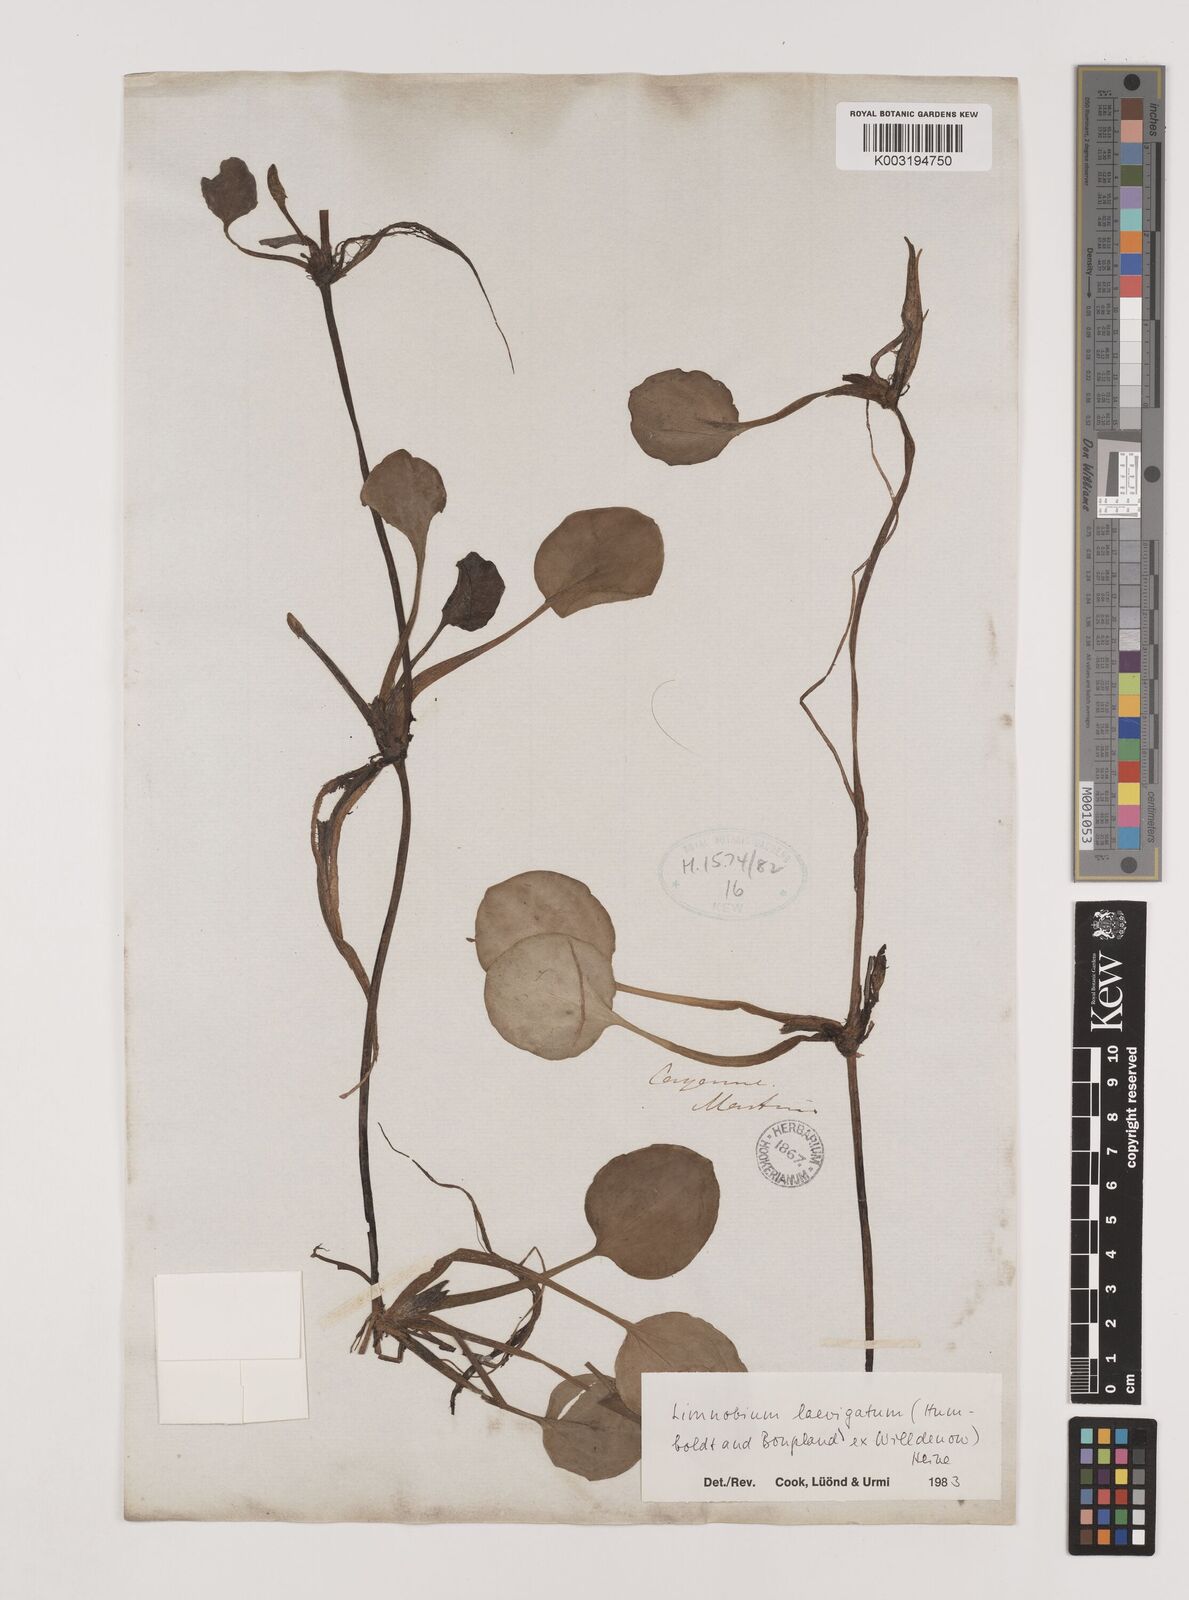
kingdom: Plantae
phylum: Tracheophyta
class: Liliopsida
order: Alismatales
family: Hydrocharitaceae
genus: Hydrocharis
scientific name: Hydrocharis laevigata
